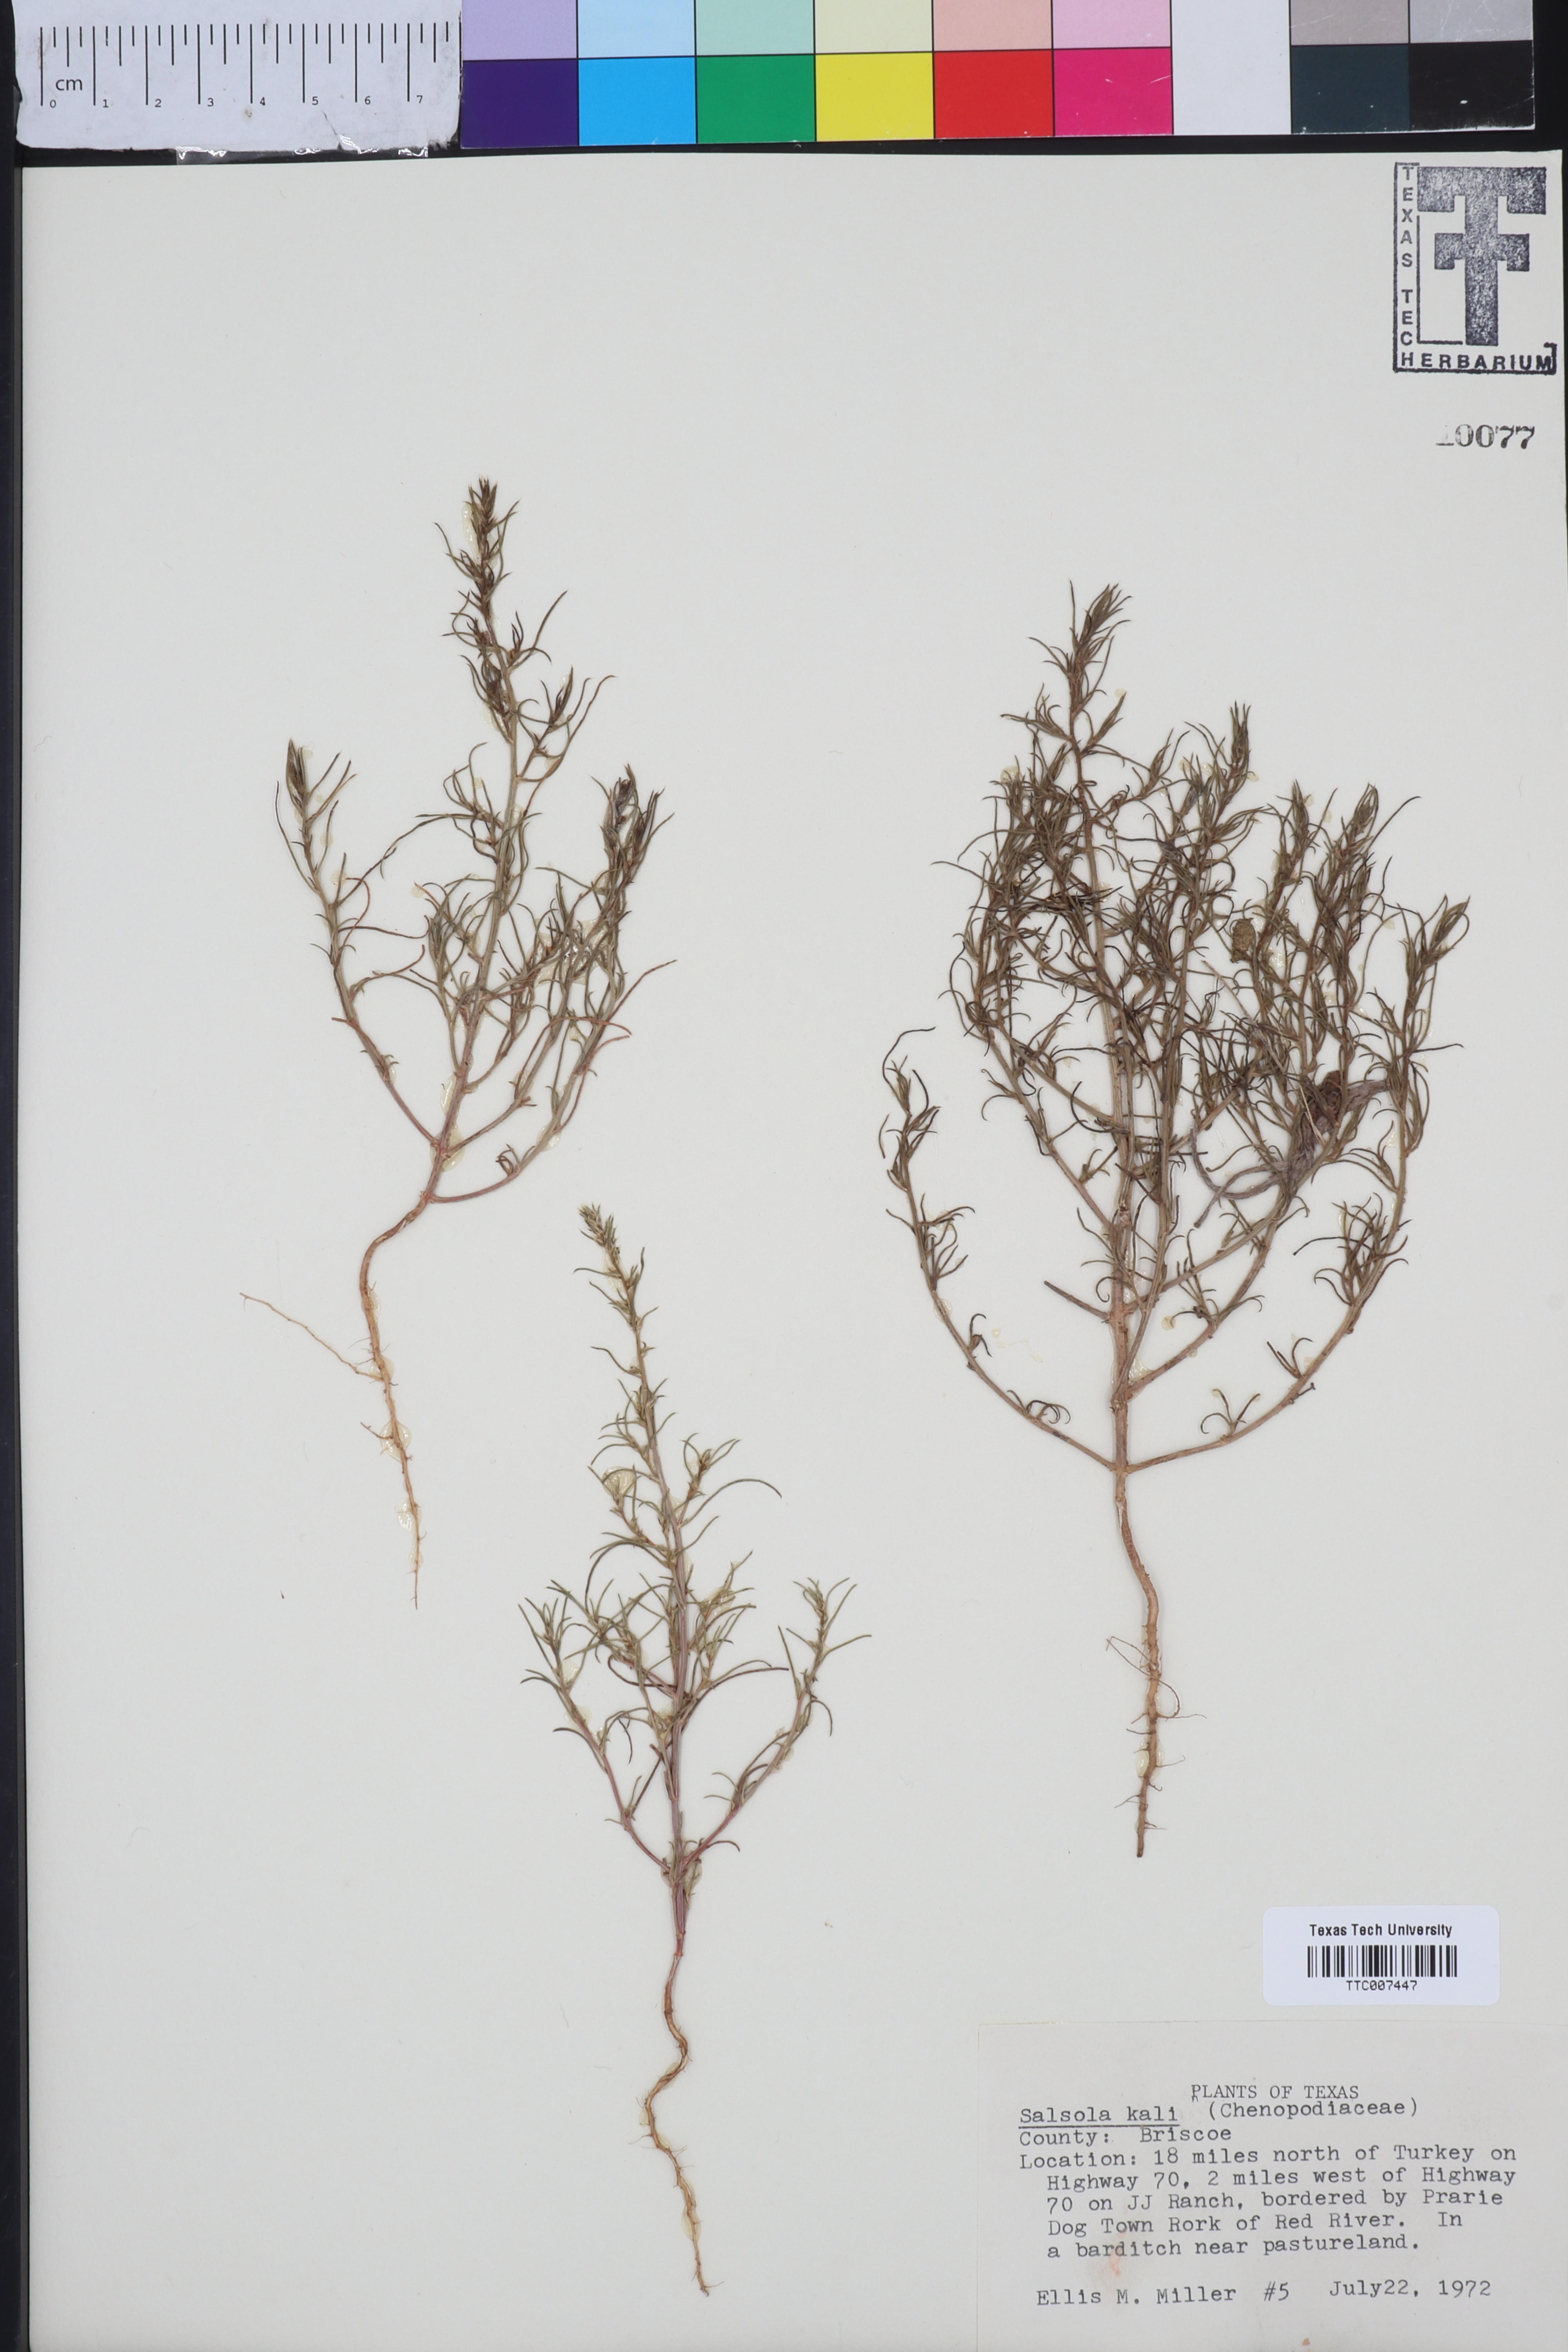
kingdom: Plantae
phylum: Tracheophyta
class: Magnoliopsida
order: Caryophyllales
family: Amaranthaceae
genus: Salsola
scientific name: Salsola kali
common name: Saltwort
